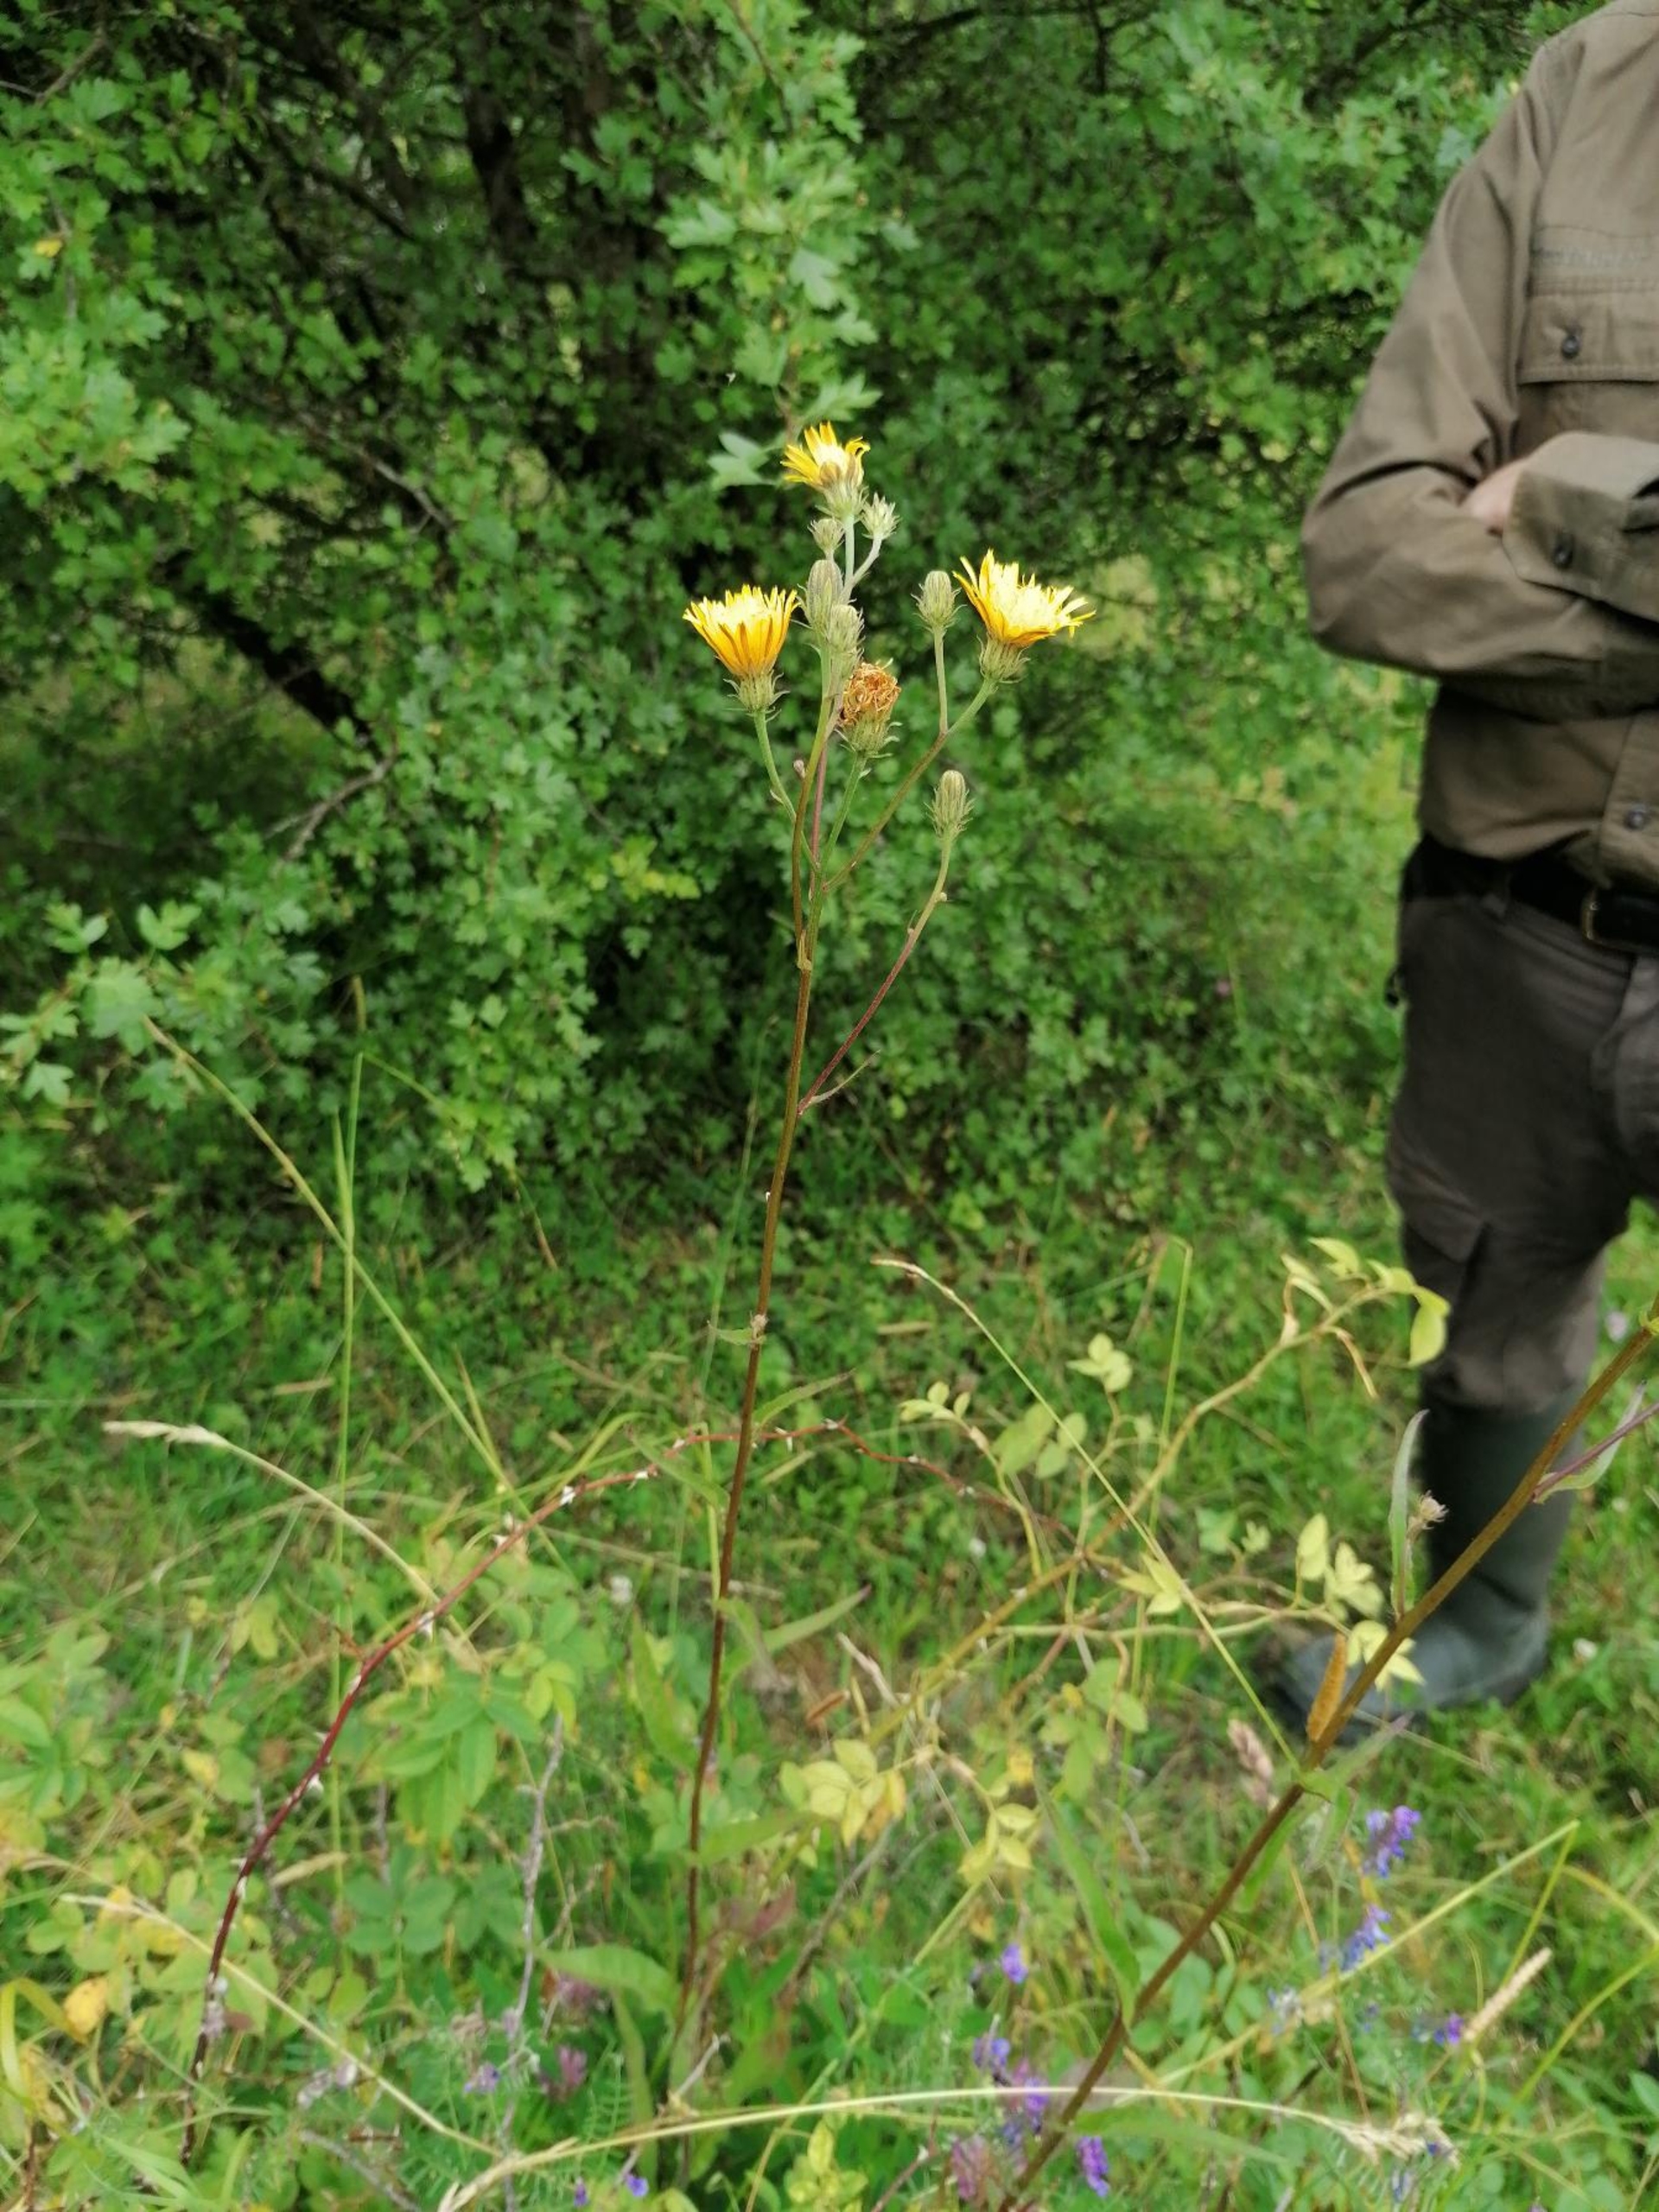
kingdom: Plantae
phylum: Tracheophyta
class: Magnoliopsida
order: Asterales
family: Asteraceae
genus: Picris
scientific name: Picris hieracioides
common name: Ru bittermælk
